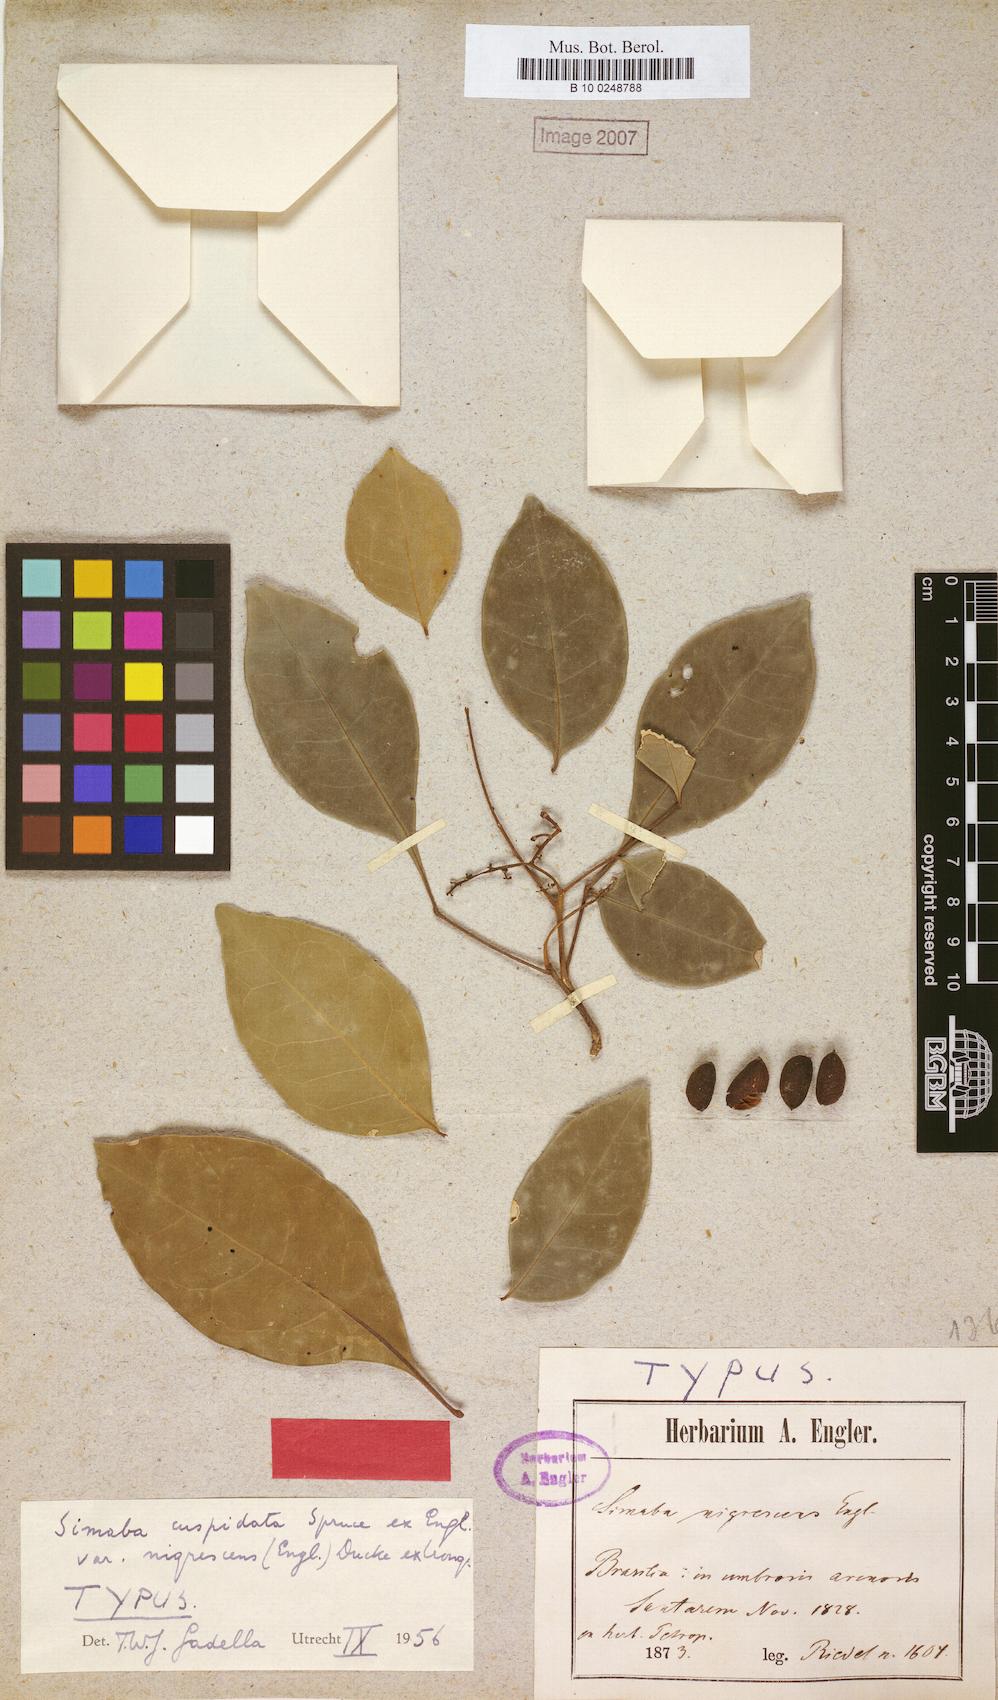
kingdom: Plantae
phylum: Tracheophyta
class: Magnoliopsida
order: Sapindales
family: Simaroubaceae
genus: Simaba
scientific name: Simaba guianensis
